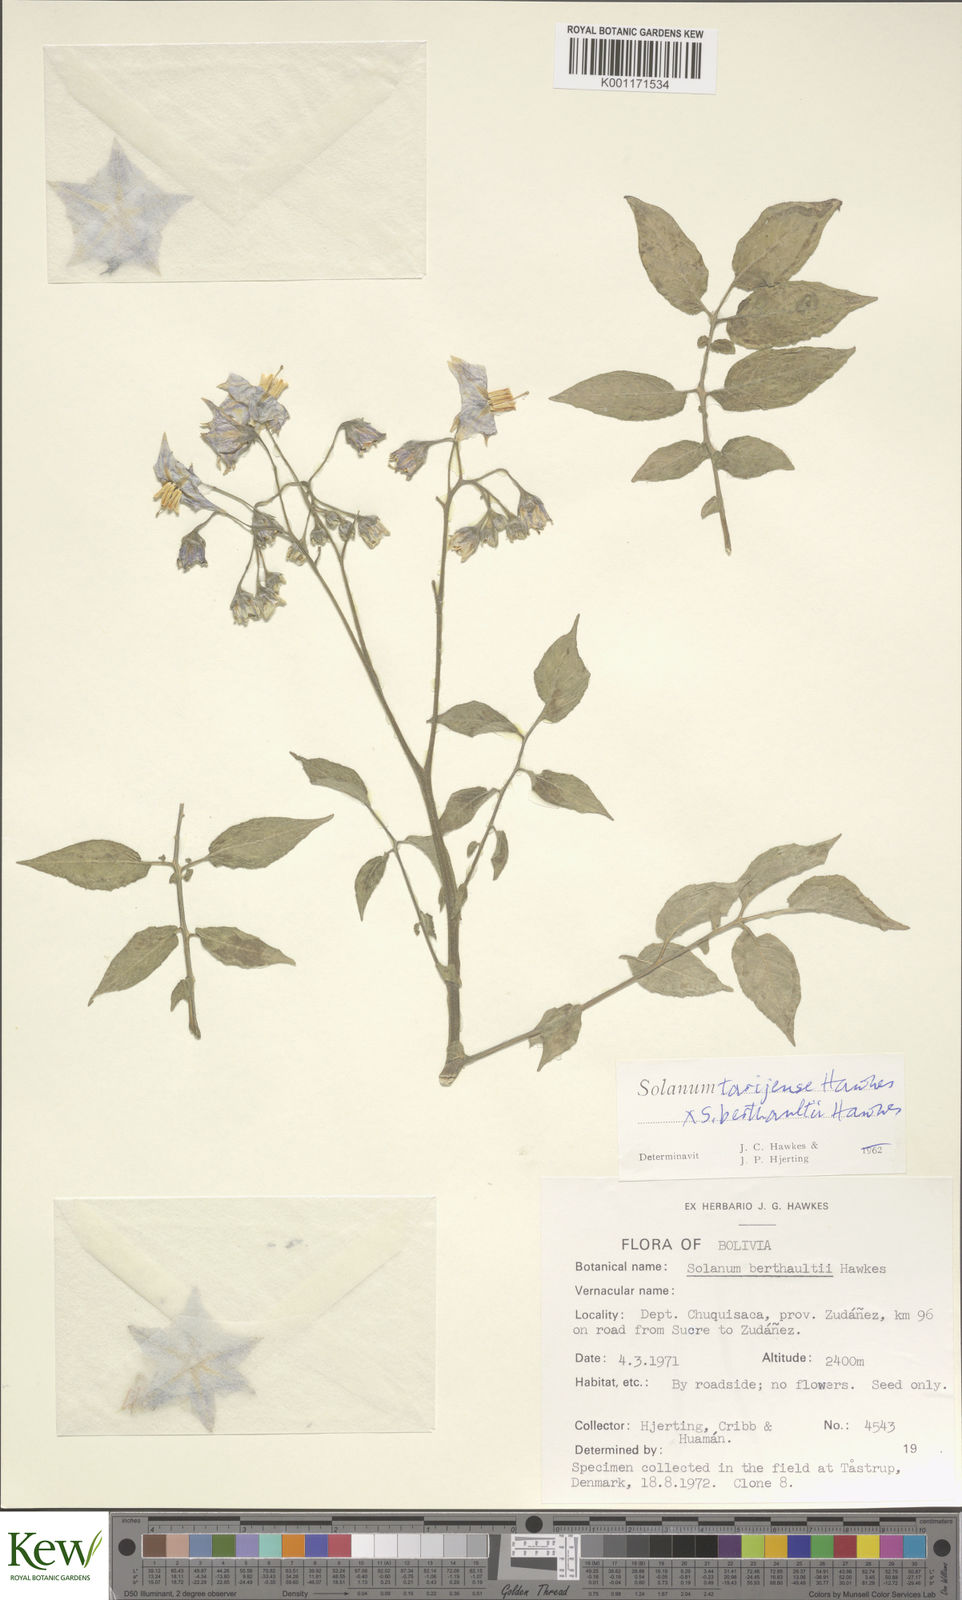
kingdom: Plantae
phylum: Tracheophyta
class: Magnoliopsida
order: Solanales
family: Solanaceae
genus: Solanum
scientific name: Solanum tarijense
